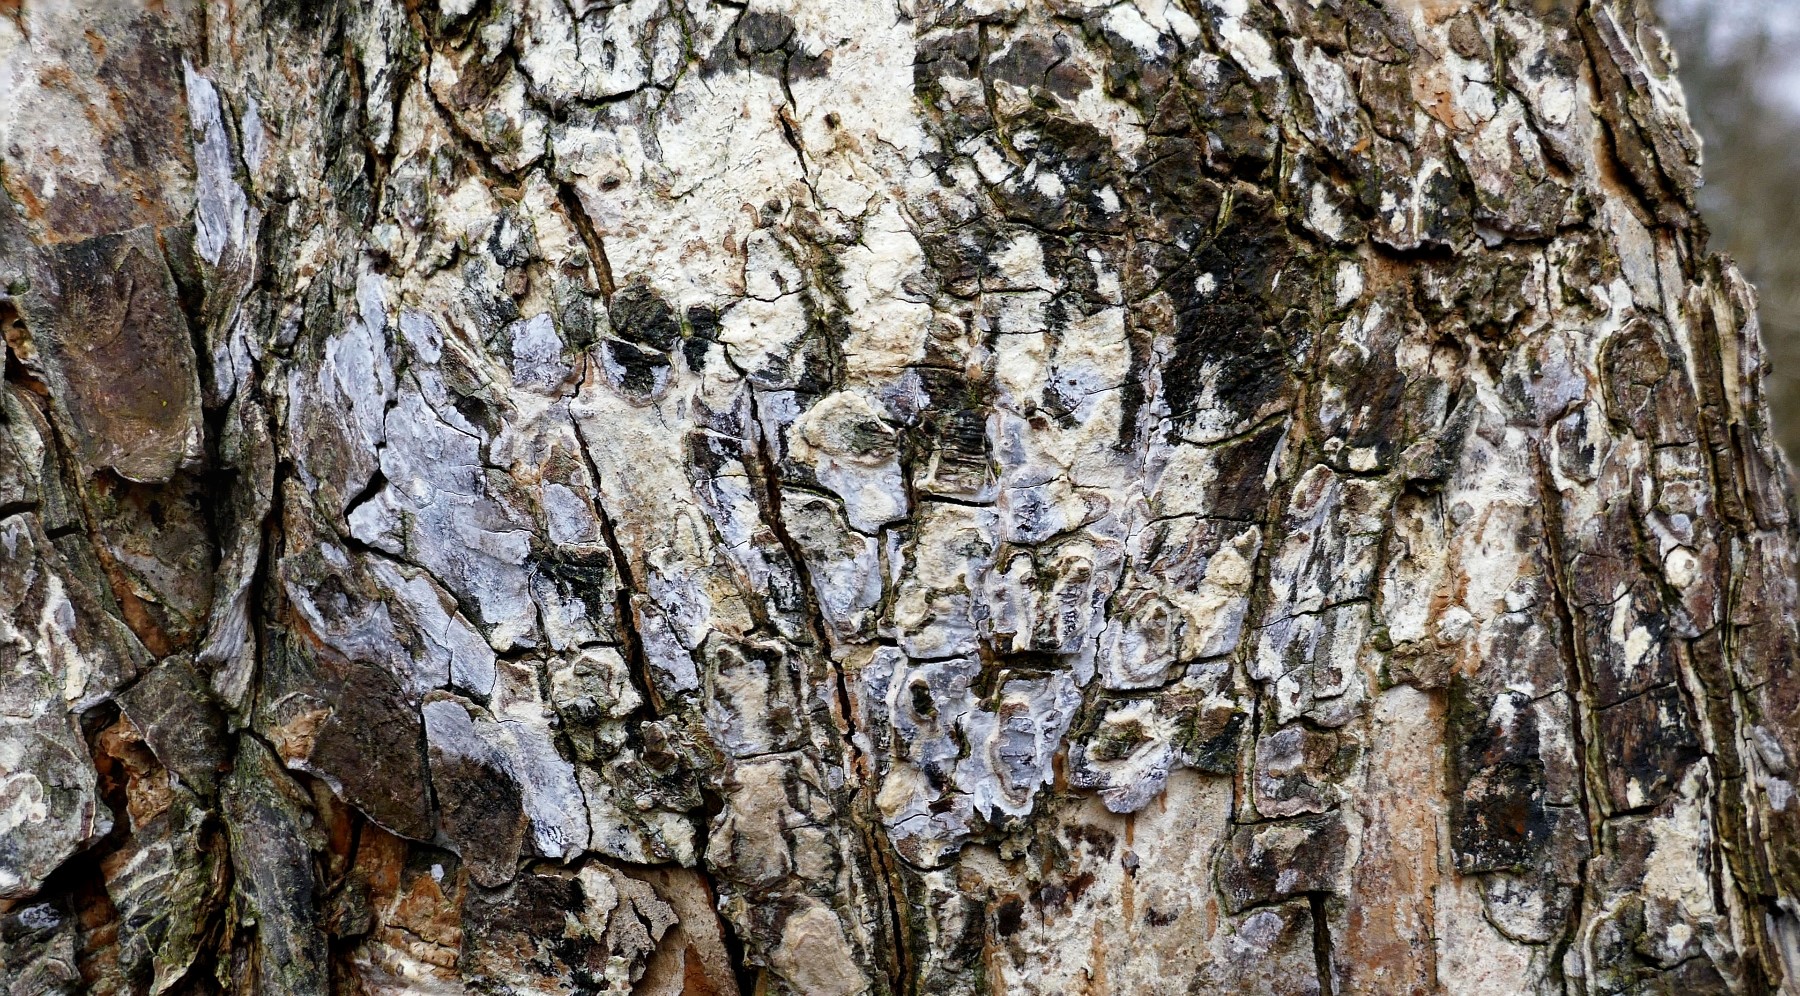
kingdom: Fungi
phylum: Basidiomycota
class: Agaricomycetes
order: Agaricales
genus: Dendrothele
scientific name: Dendrothele acerina
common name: navr-kalkplet
